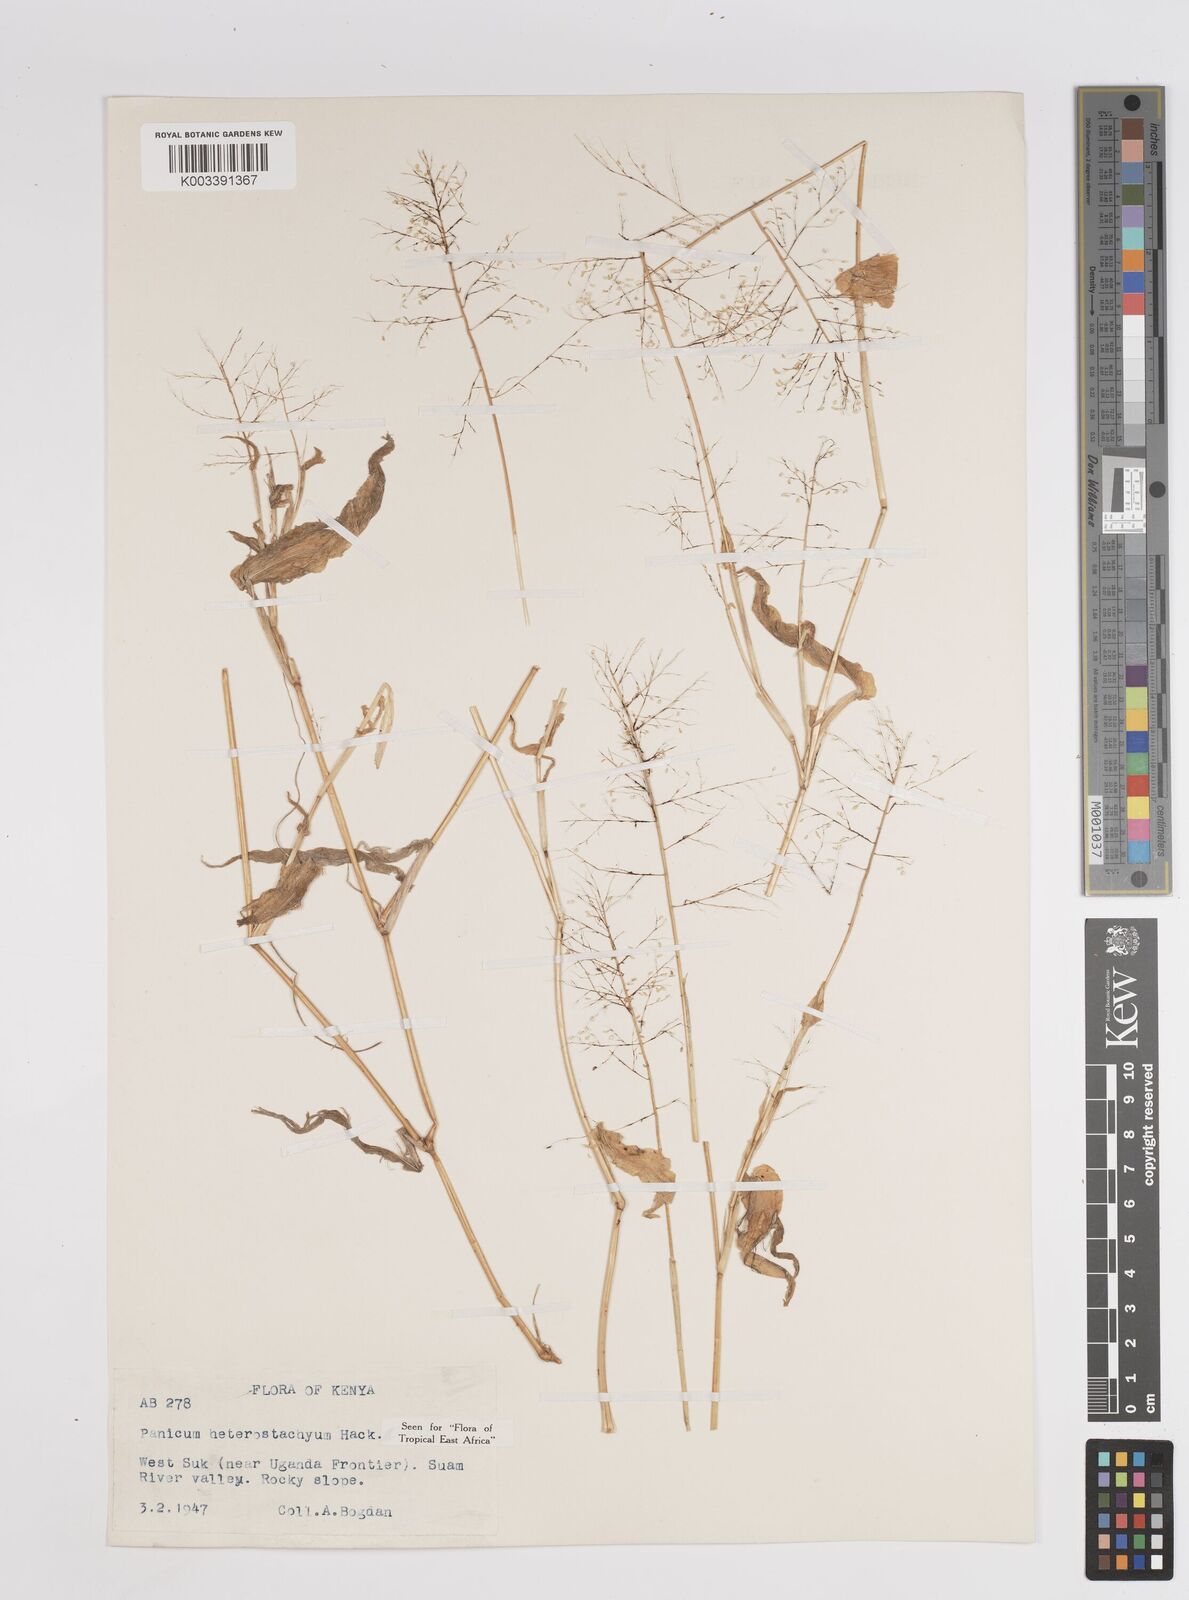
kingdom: Plantae
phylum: Tracheophyta
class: Liliopsida
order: Poales
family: Poaceae
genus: Panicum
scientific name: Panicum hirtum
